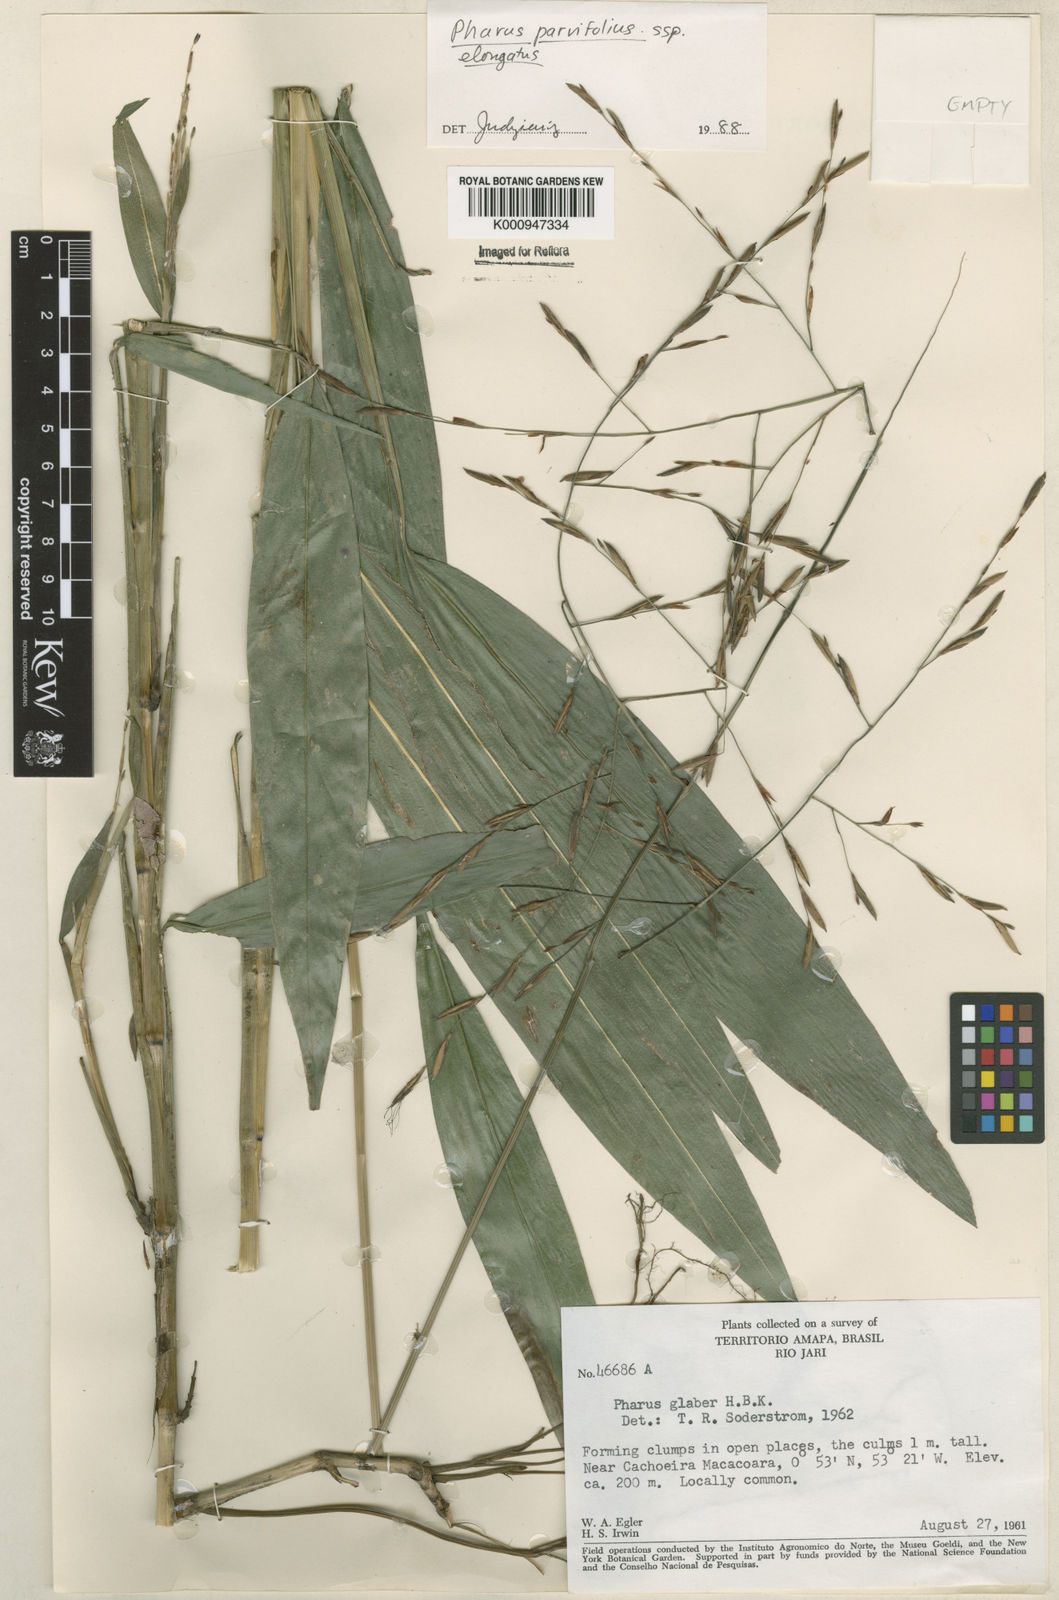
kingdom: Plantae
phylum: Tracheophyta
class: Liliopsida
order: Poales
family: Poaceae
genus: Pharus
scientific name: Pharus parvifolius
